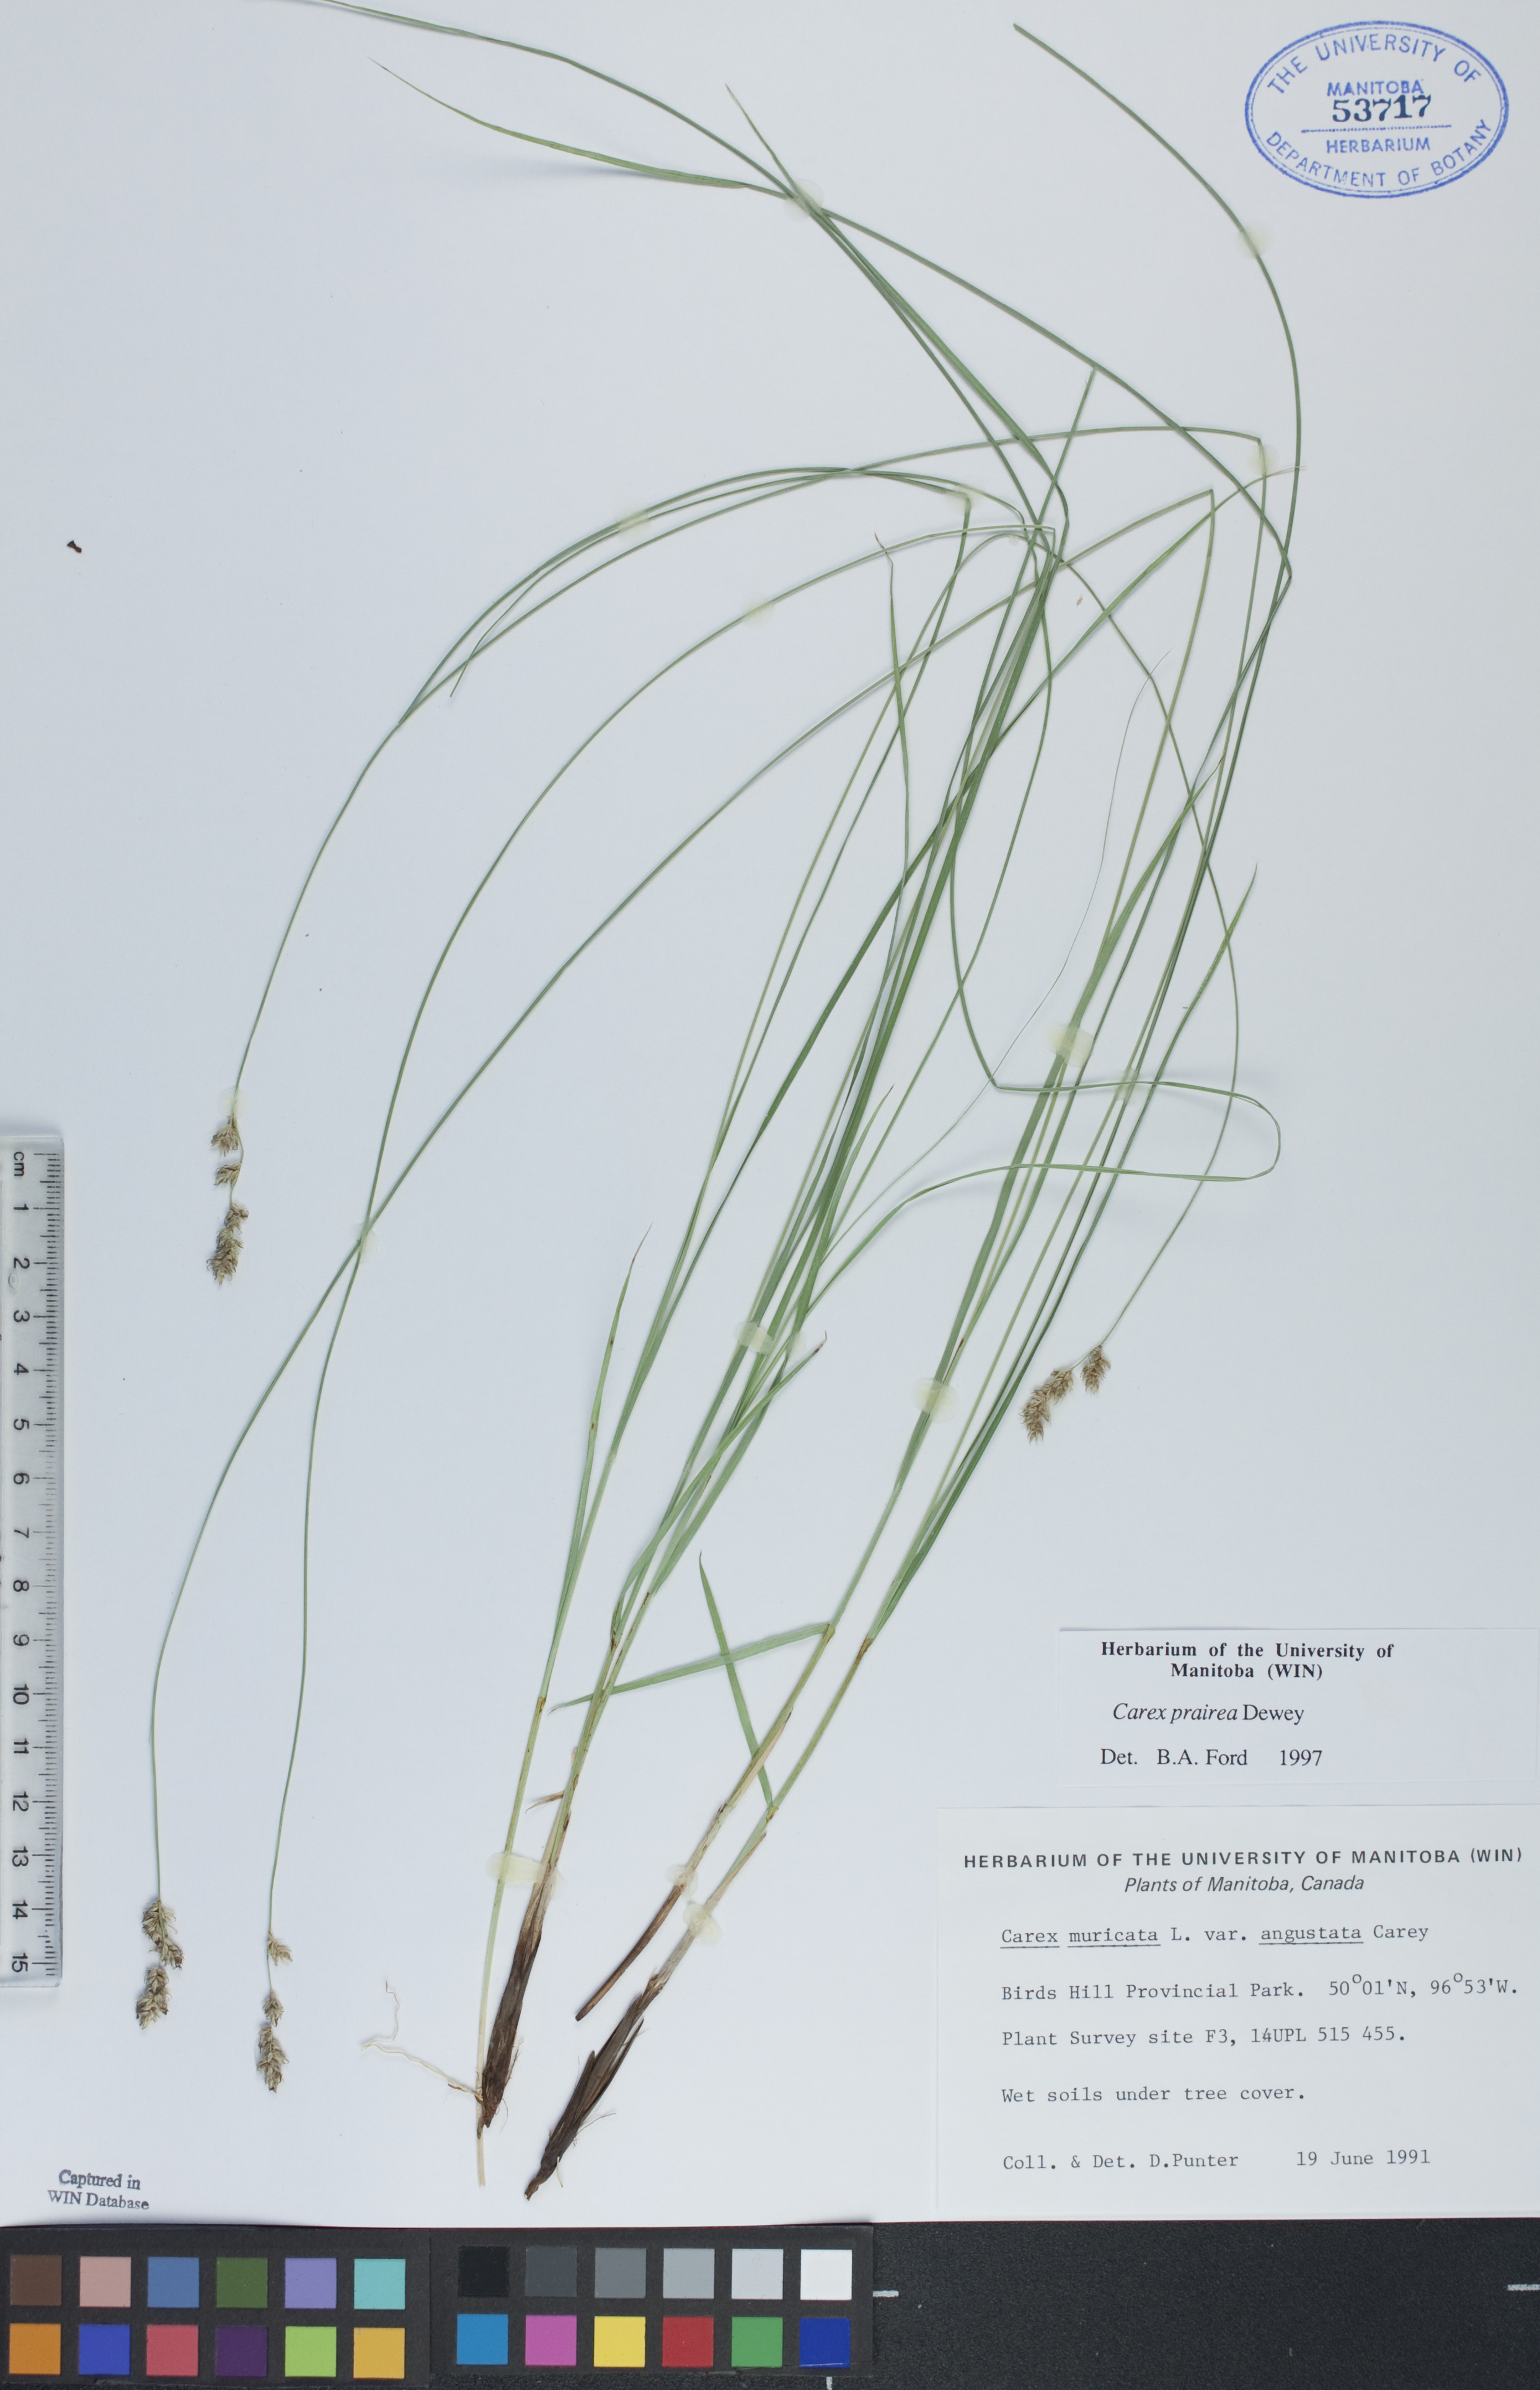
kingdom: Plantae
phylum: Tracheophyta
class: Liliopsida
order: Poales
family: Cyperaceae
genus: Carex
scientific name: Carex prairea
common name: Prairie sedge
